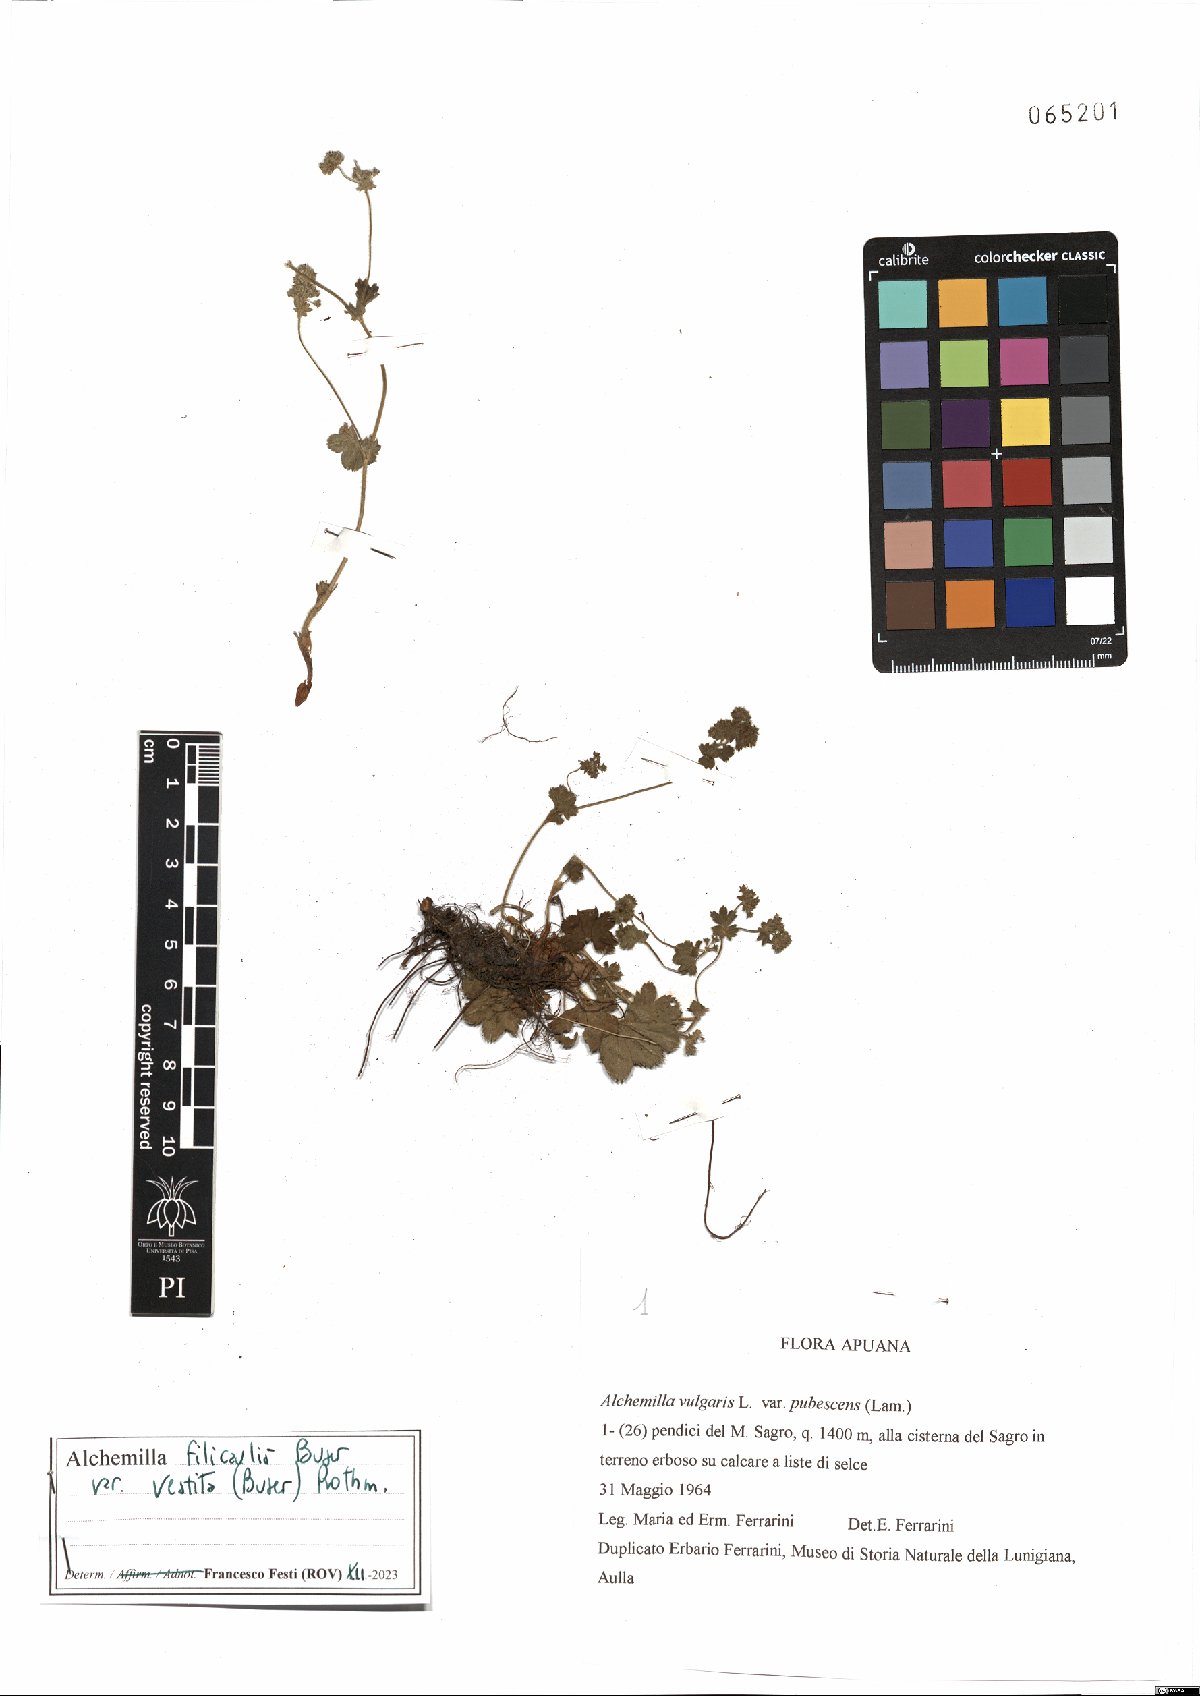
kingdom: Plantae
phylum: Tracheophyta
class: Magnoliopsida
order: Rosales
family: Rosaceae
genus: Alchemilla
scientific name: Alchemilla filicaulis
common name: Hairy lady's-mantle
